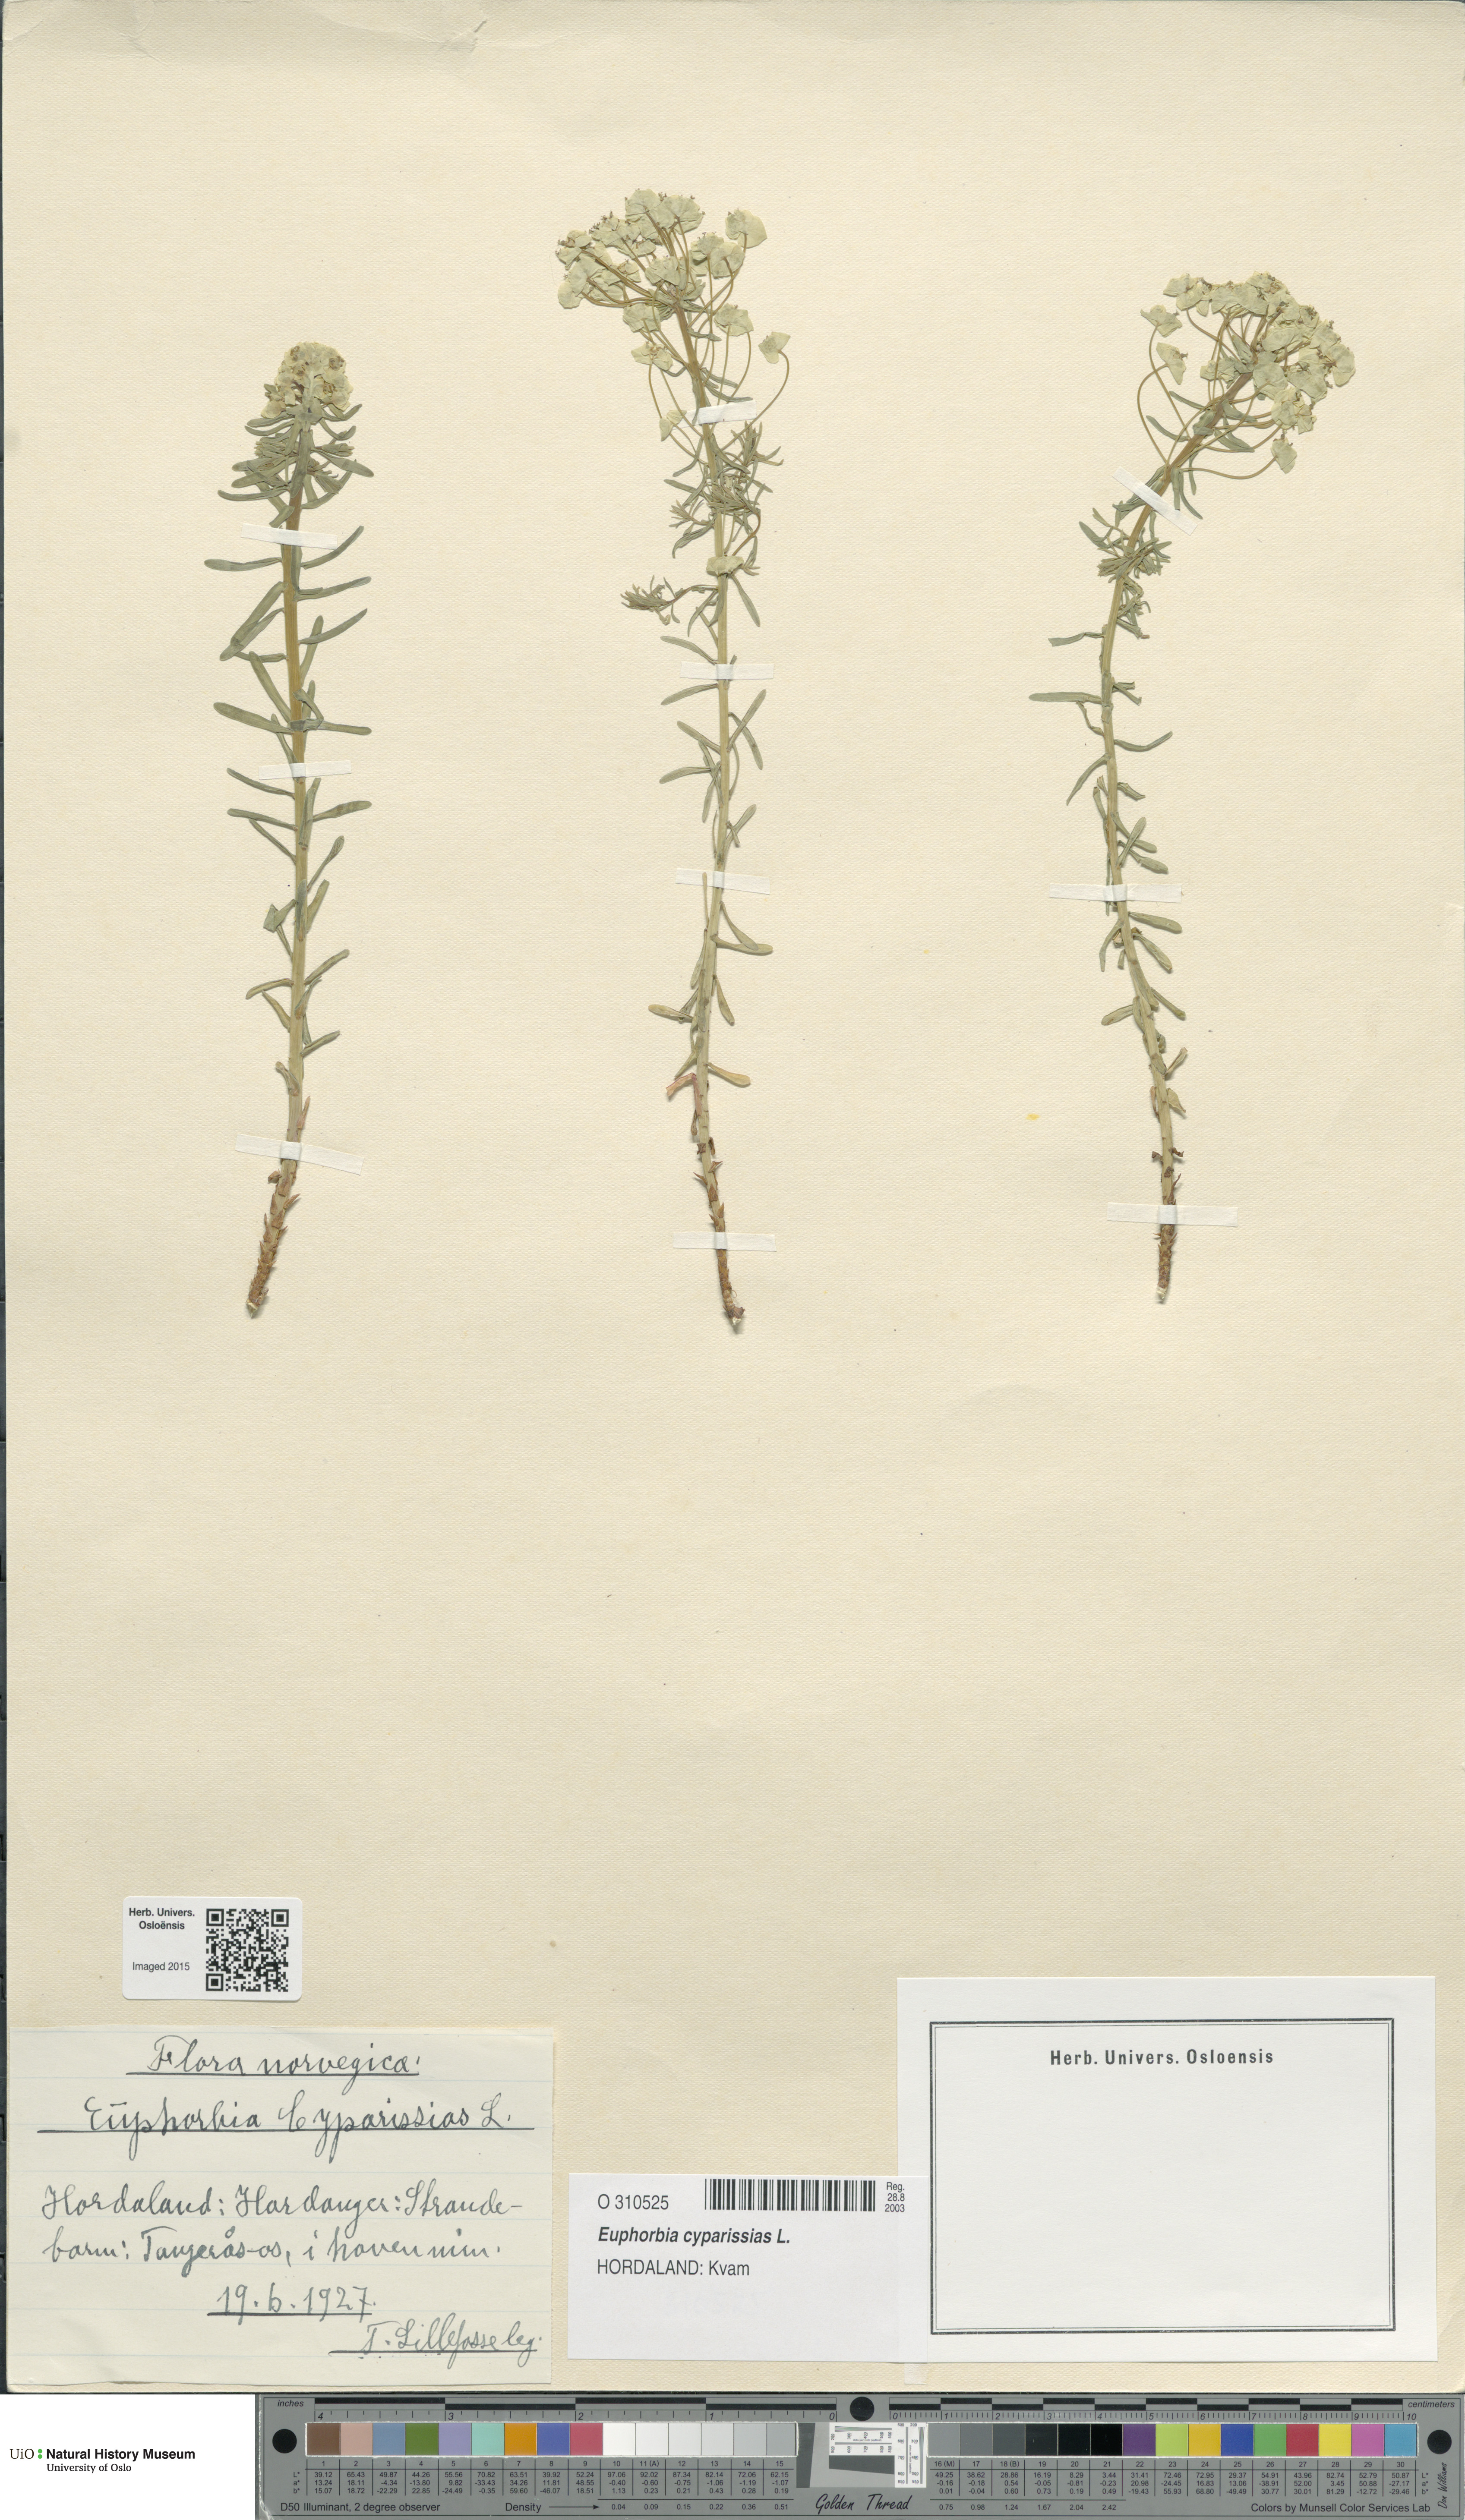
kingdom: Plantae
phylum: Tracheophyta
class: Magnoliopsida
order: Malpighiales
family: Euphorbiaceae
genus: Euphorbia
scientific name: Euphorbia cyparissias
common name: Cypress spurge
